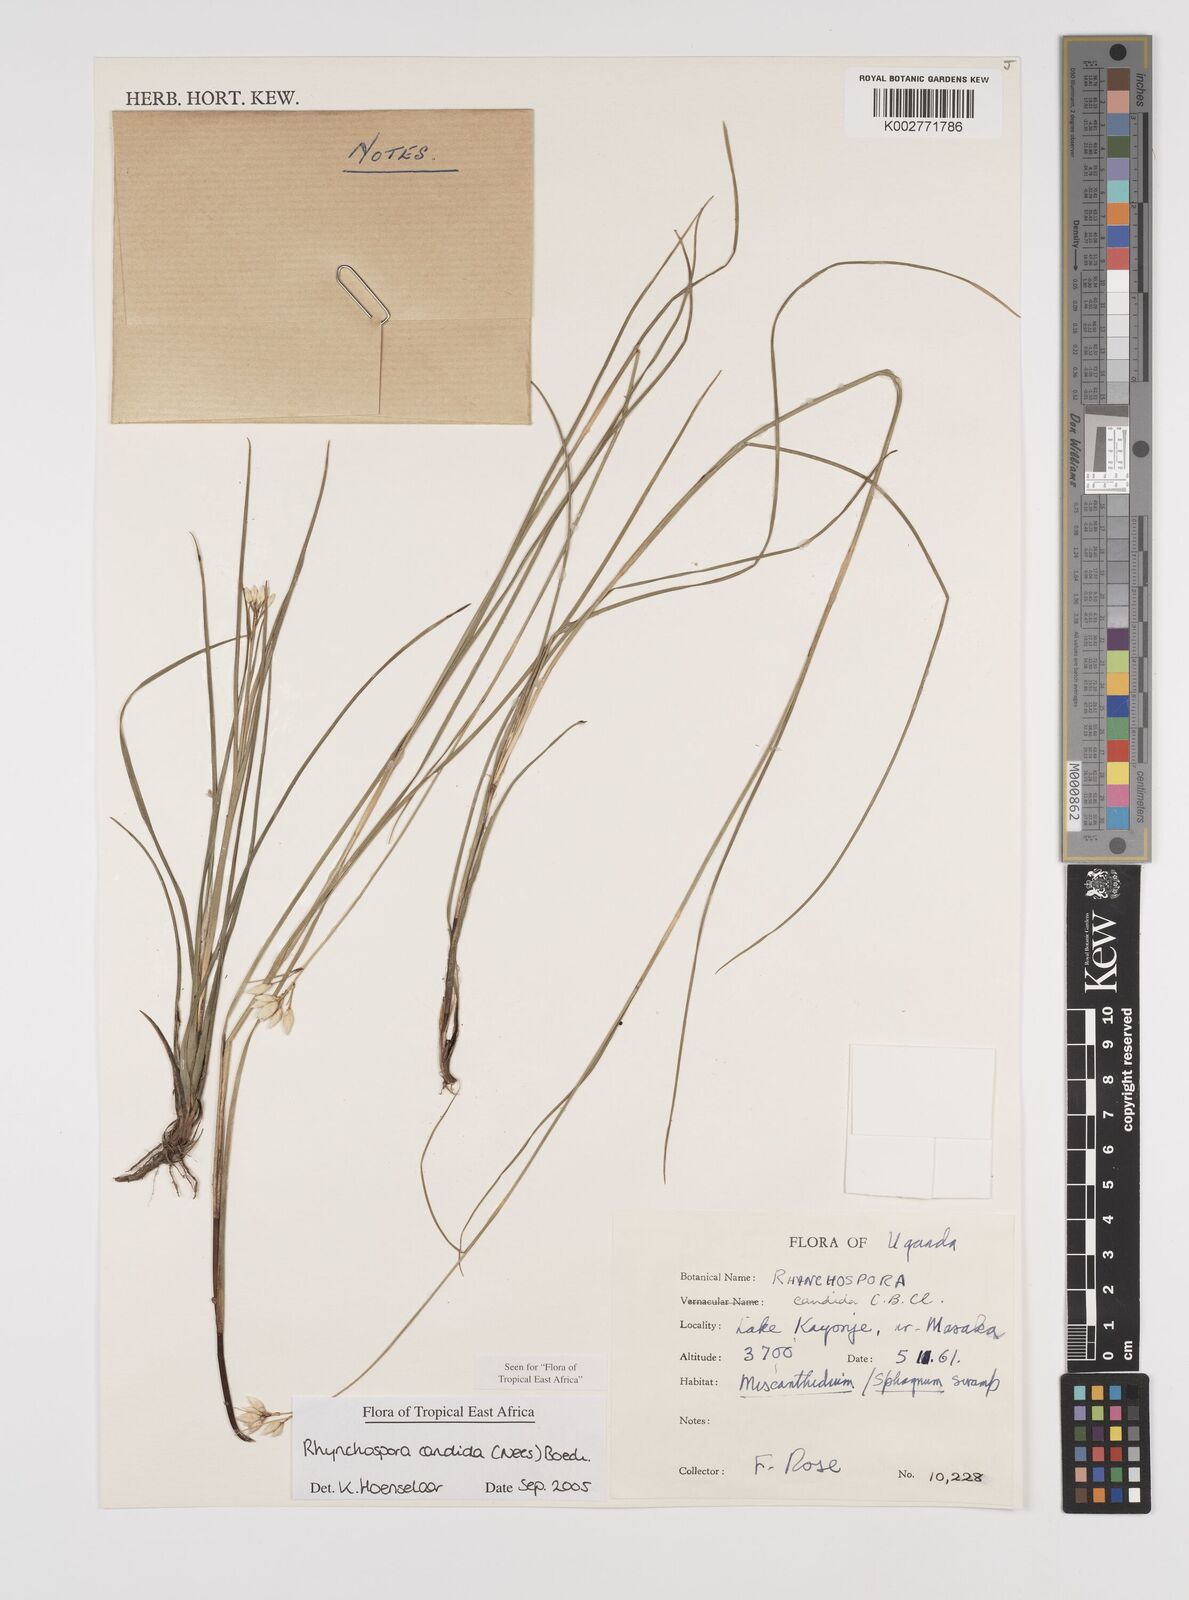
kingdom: Plantae
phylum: Tracheophyta
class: Liliopsida
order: Poales
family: Cyperaceae
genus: Rhynchospora
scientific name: Rhynchospora candida
